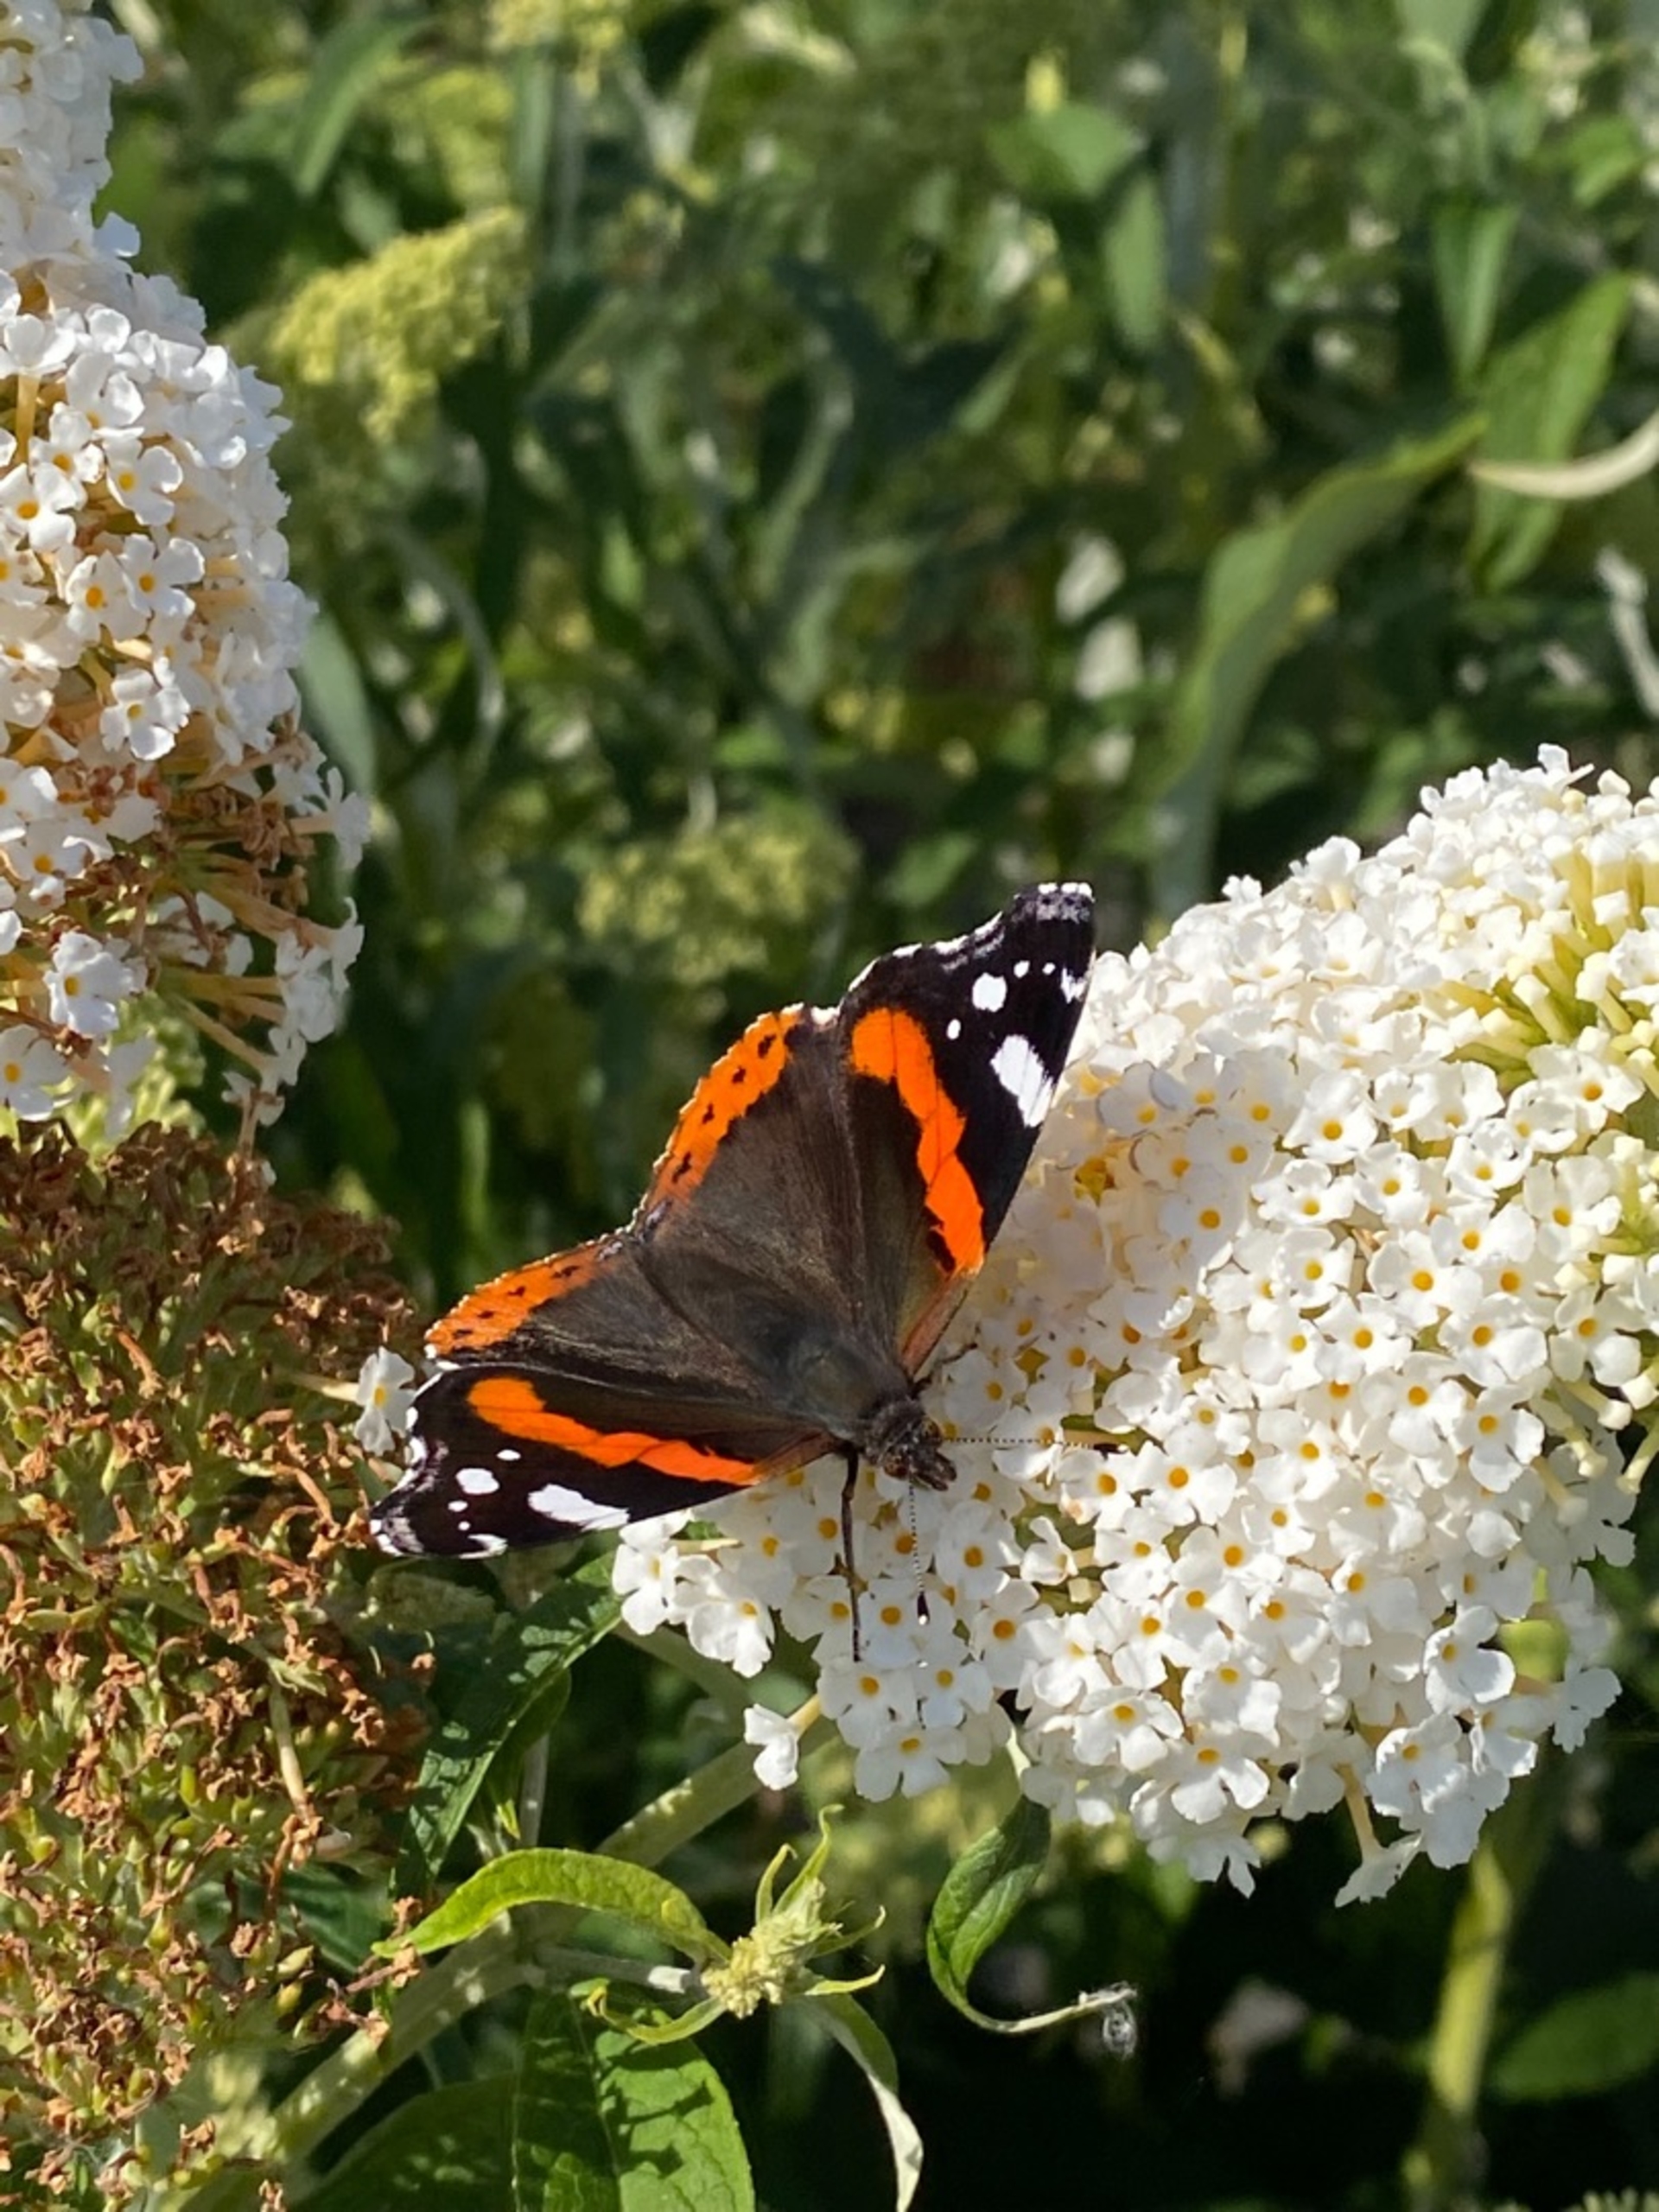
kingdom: Animalia
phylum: Arthropoda
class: Insecta
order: Lepidoptera
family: Nymphalidae
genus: Vanessa
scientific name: Vanessa atalanta
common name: Admiral
